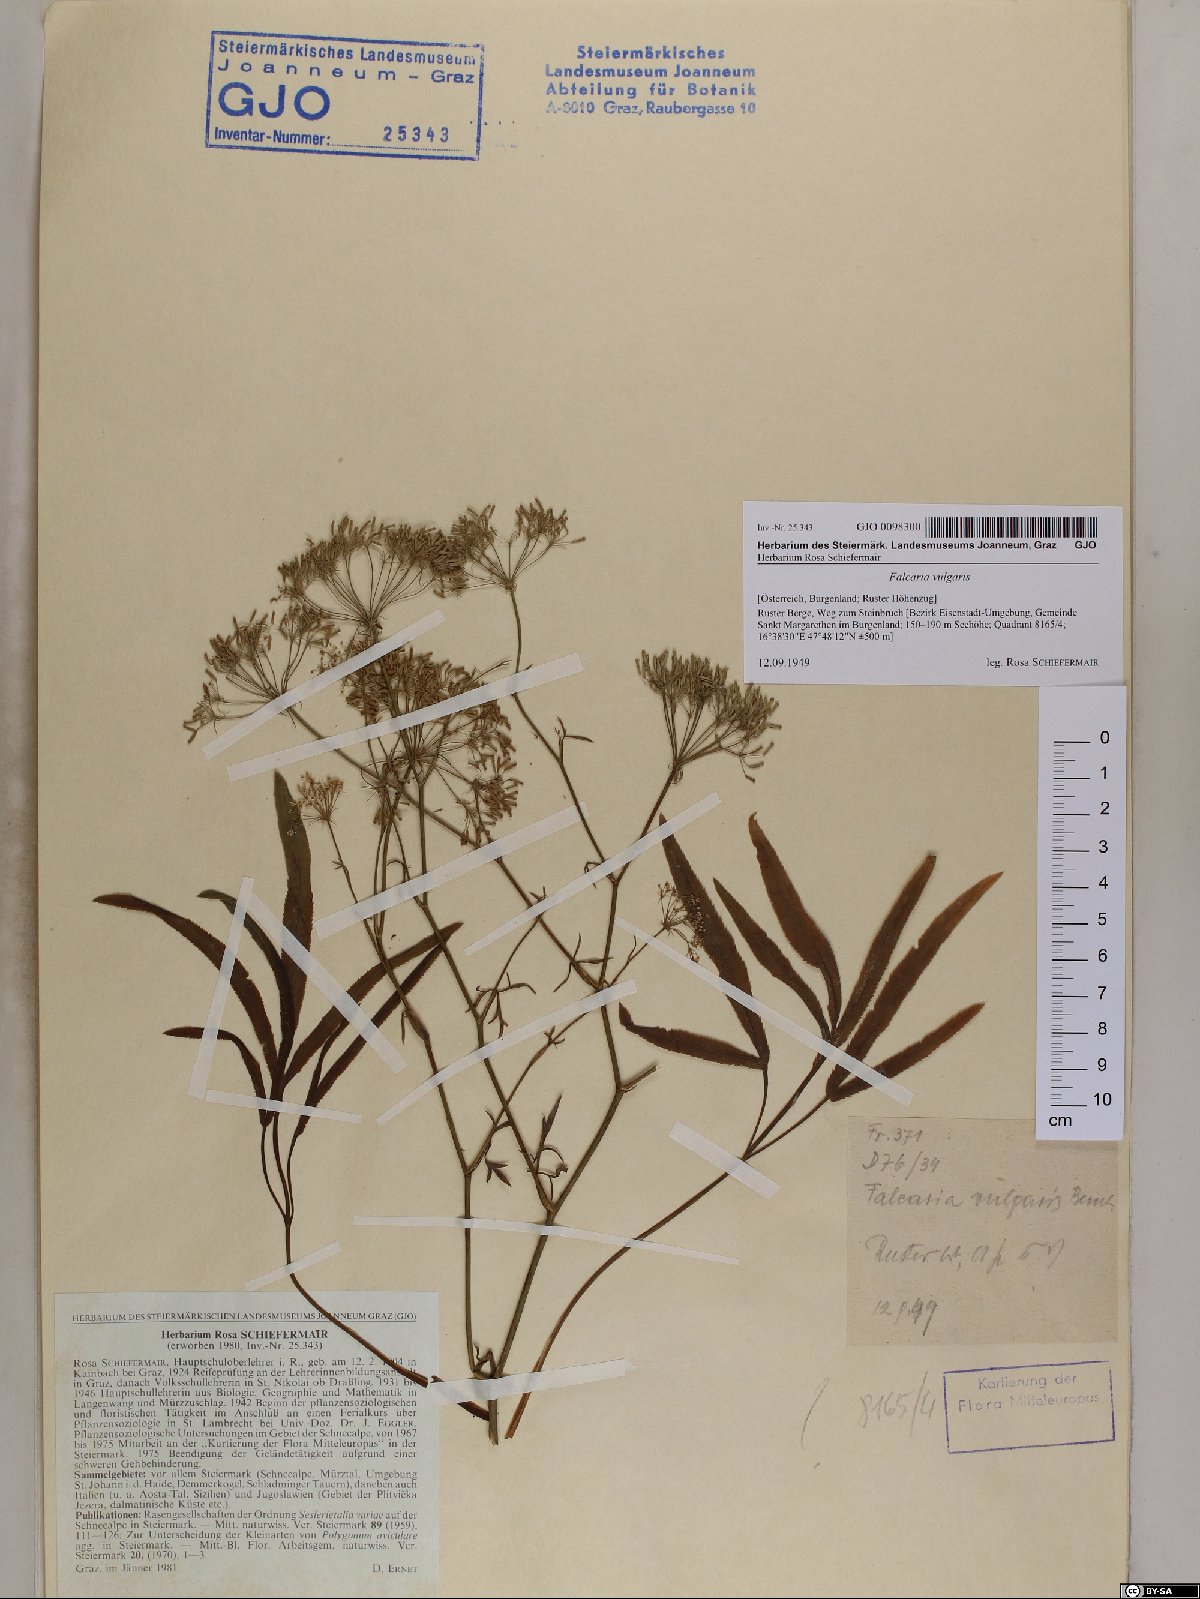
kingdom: Plantae
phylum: Tracheophyta
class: Magnoliopsida
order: Apiales
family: Apiaceae
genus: Falcaria
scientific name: Falcaria vulgaris
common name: Longleaf
